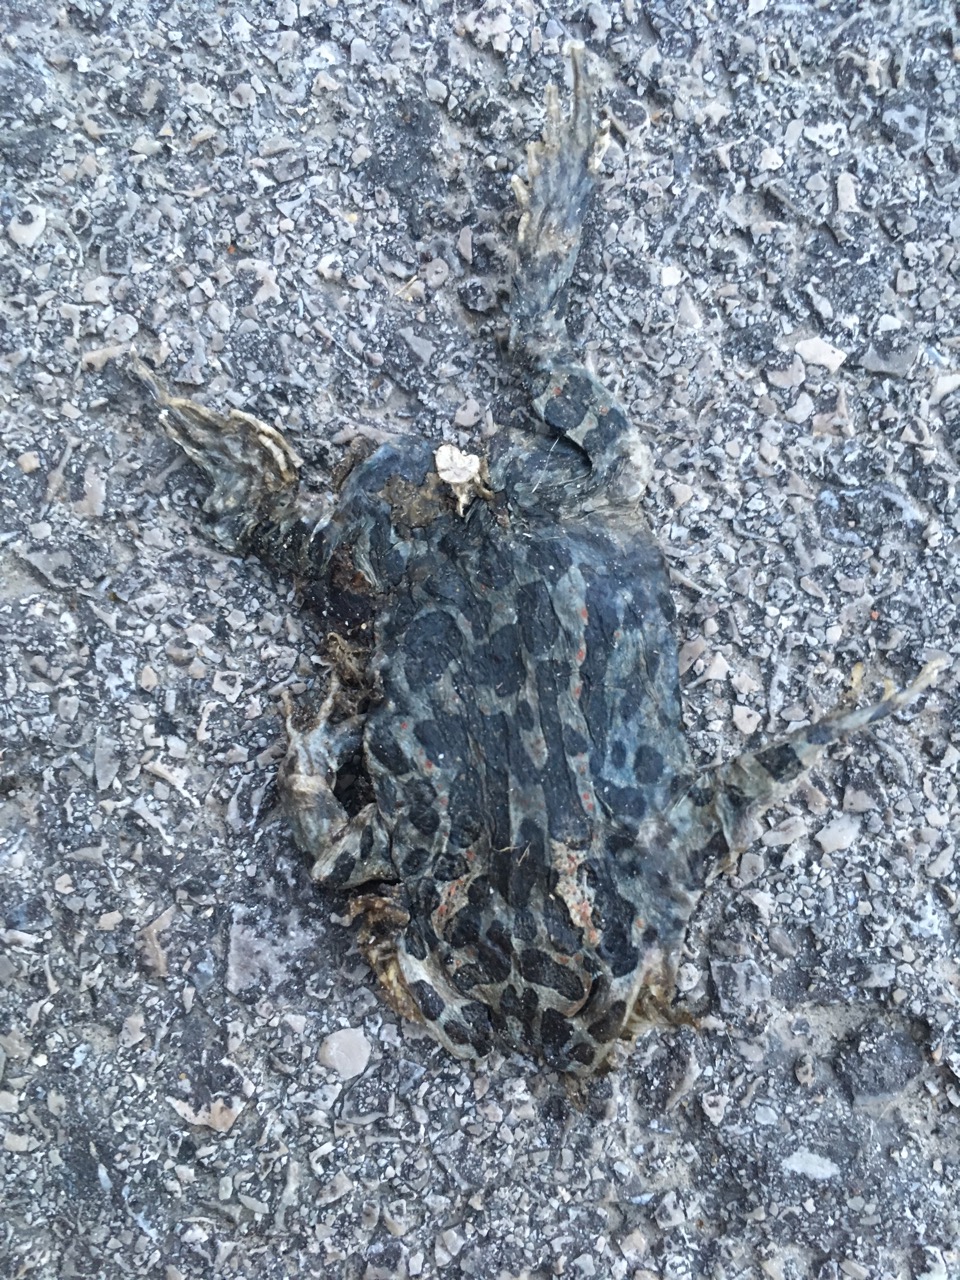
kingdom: Animalia
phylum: Chordata
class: Amphibia
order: Anura
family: Bufonidae
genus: Bufotes
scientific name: Bufotes viridis
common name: European green toad
